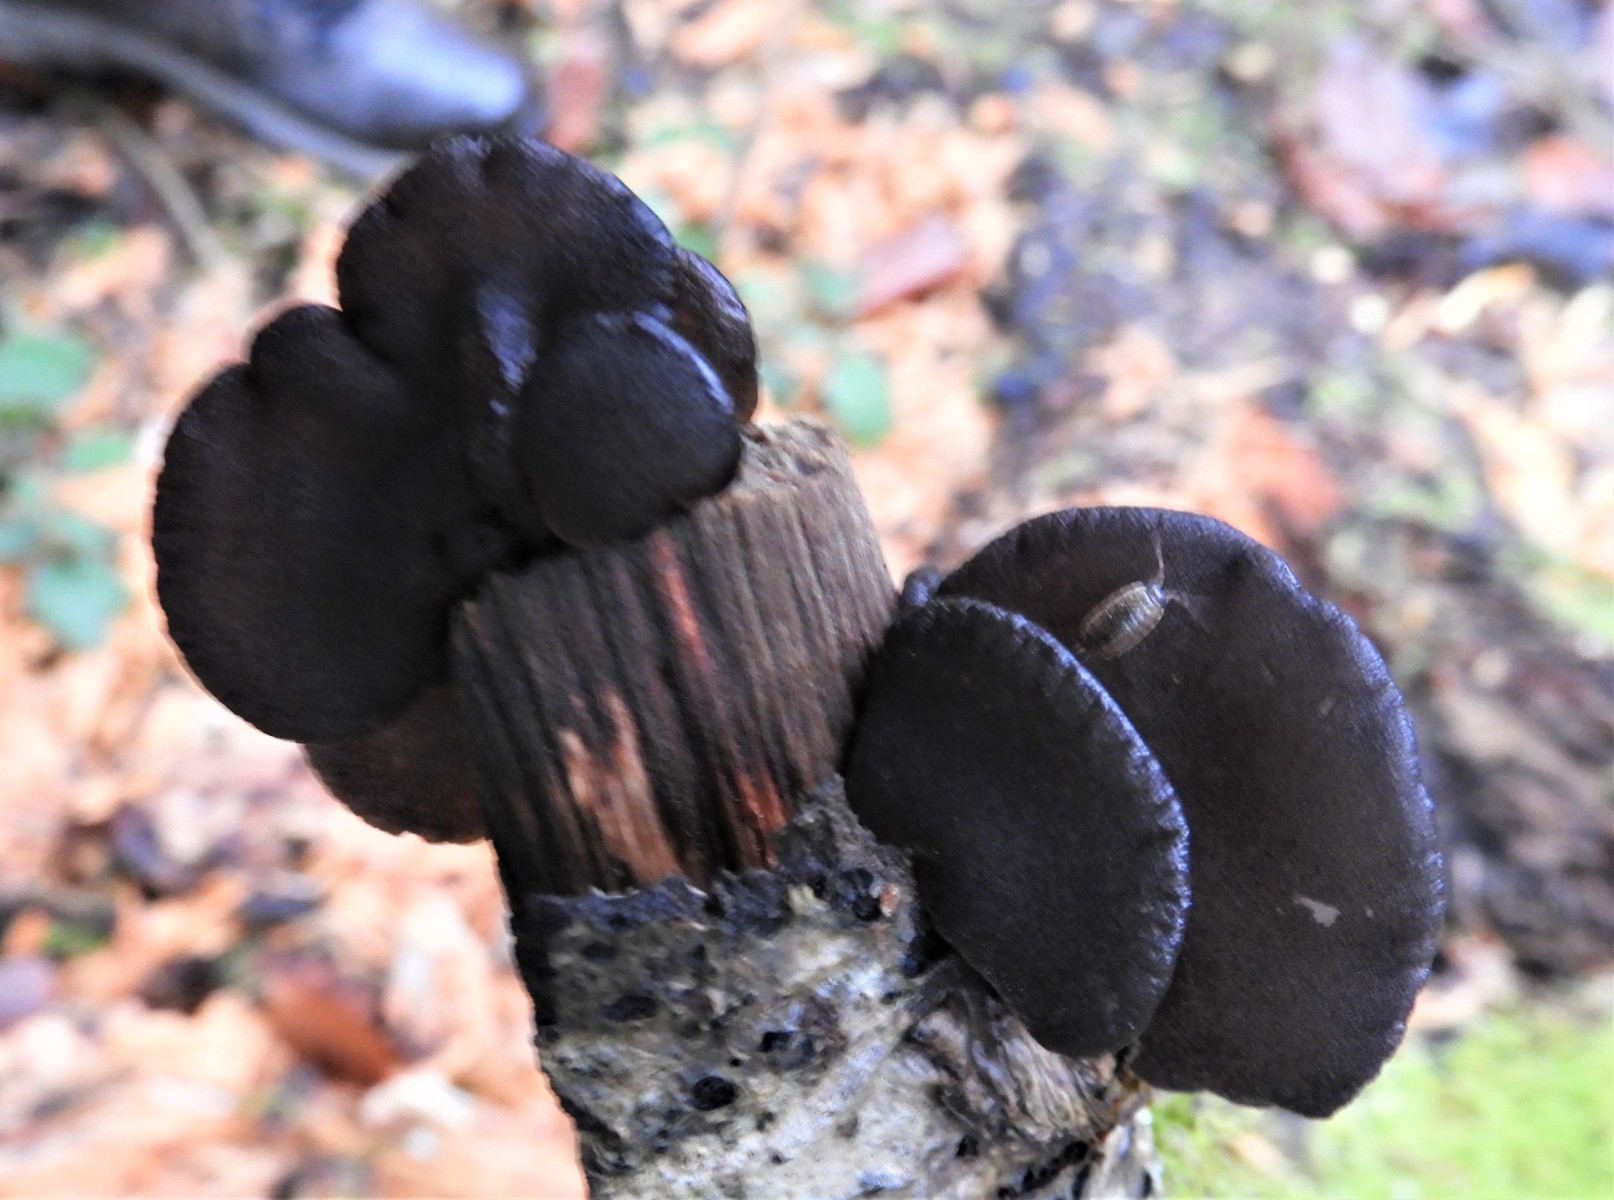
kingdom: Fungi
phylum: Basidiomycota
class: Agaricomycetes
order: Auriculariales
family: Auriculariaceae
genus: Exidia
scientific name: Exidia glandulosa
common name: ege-bævretop
